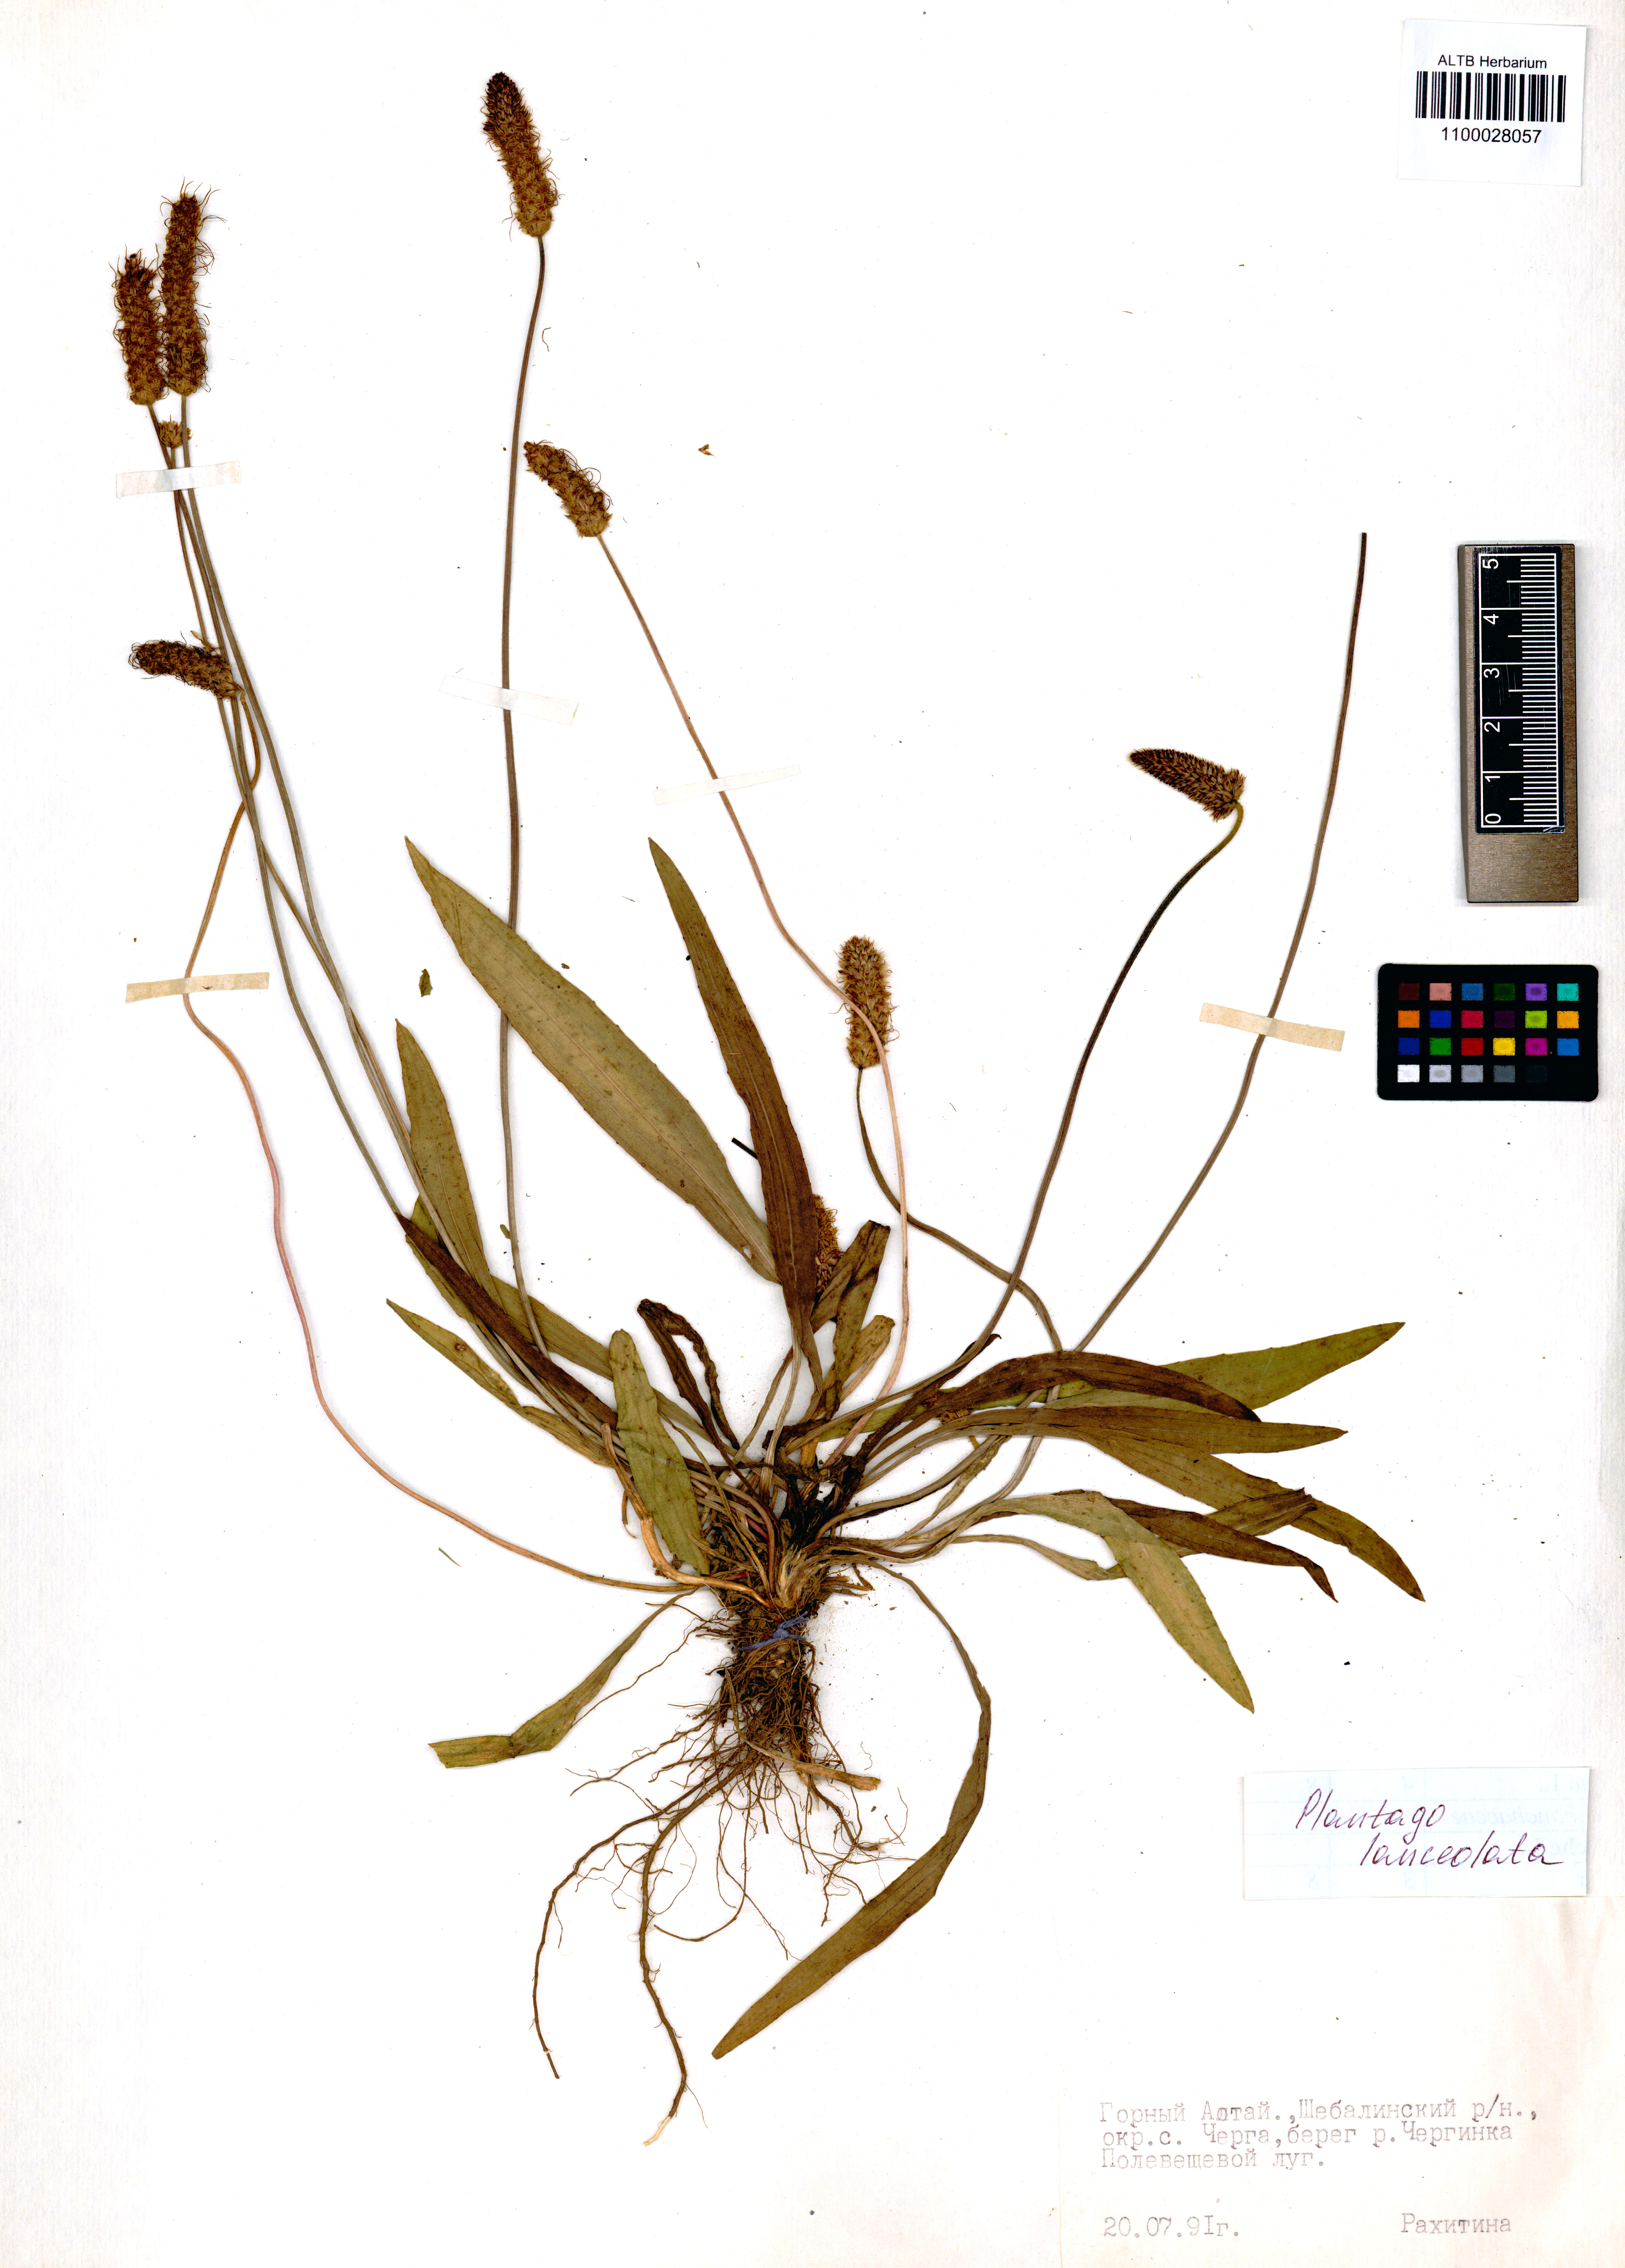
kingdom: Plantae
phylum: Tracheophyta
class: Magnoliopsida
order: Lamiales
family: Plantaginaceae
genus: Plantago
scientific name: Plantago lanceolata
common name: Ribwort plantain
